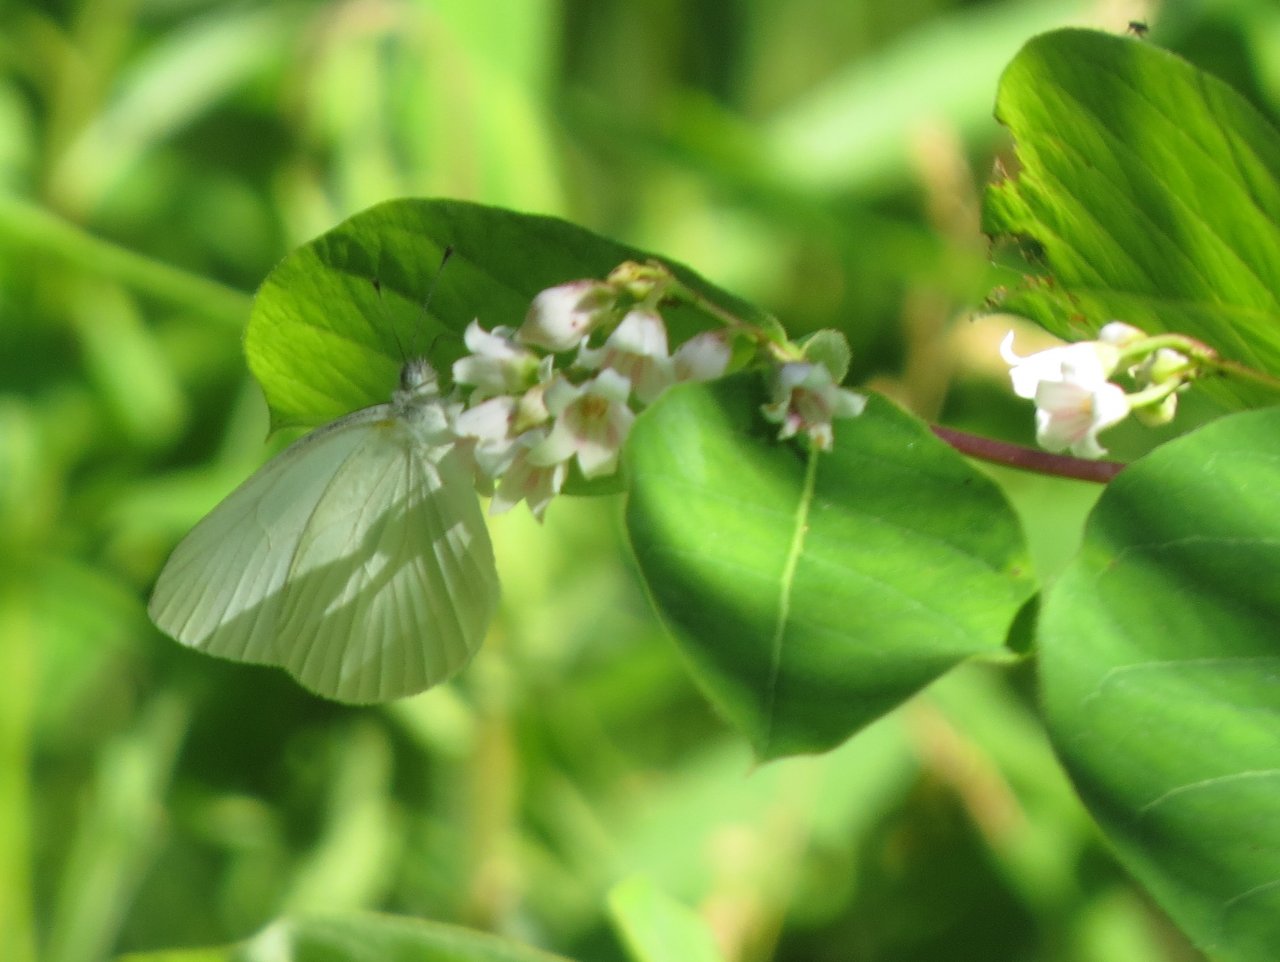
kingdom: Animalia
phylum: Arthropoda
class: Insecta
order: Lepidoptera
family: Pieridae
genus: Pieris
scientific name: Pieris oleracea
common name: Mustard White
